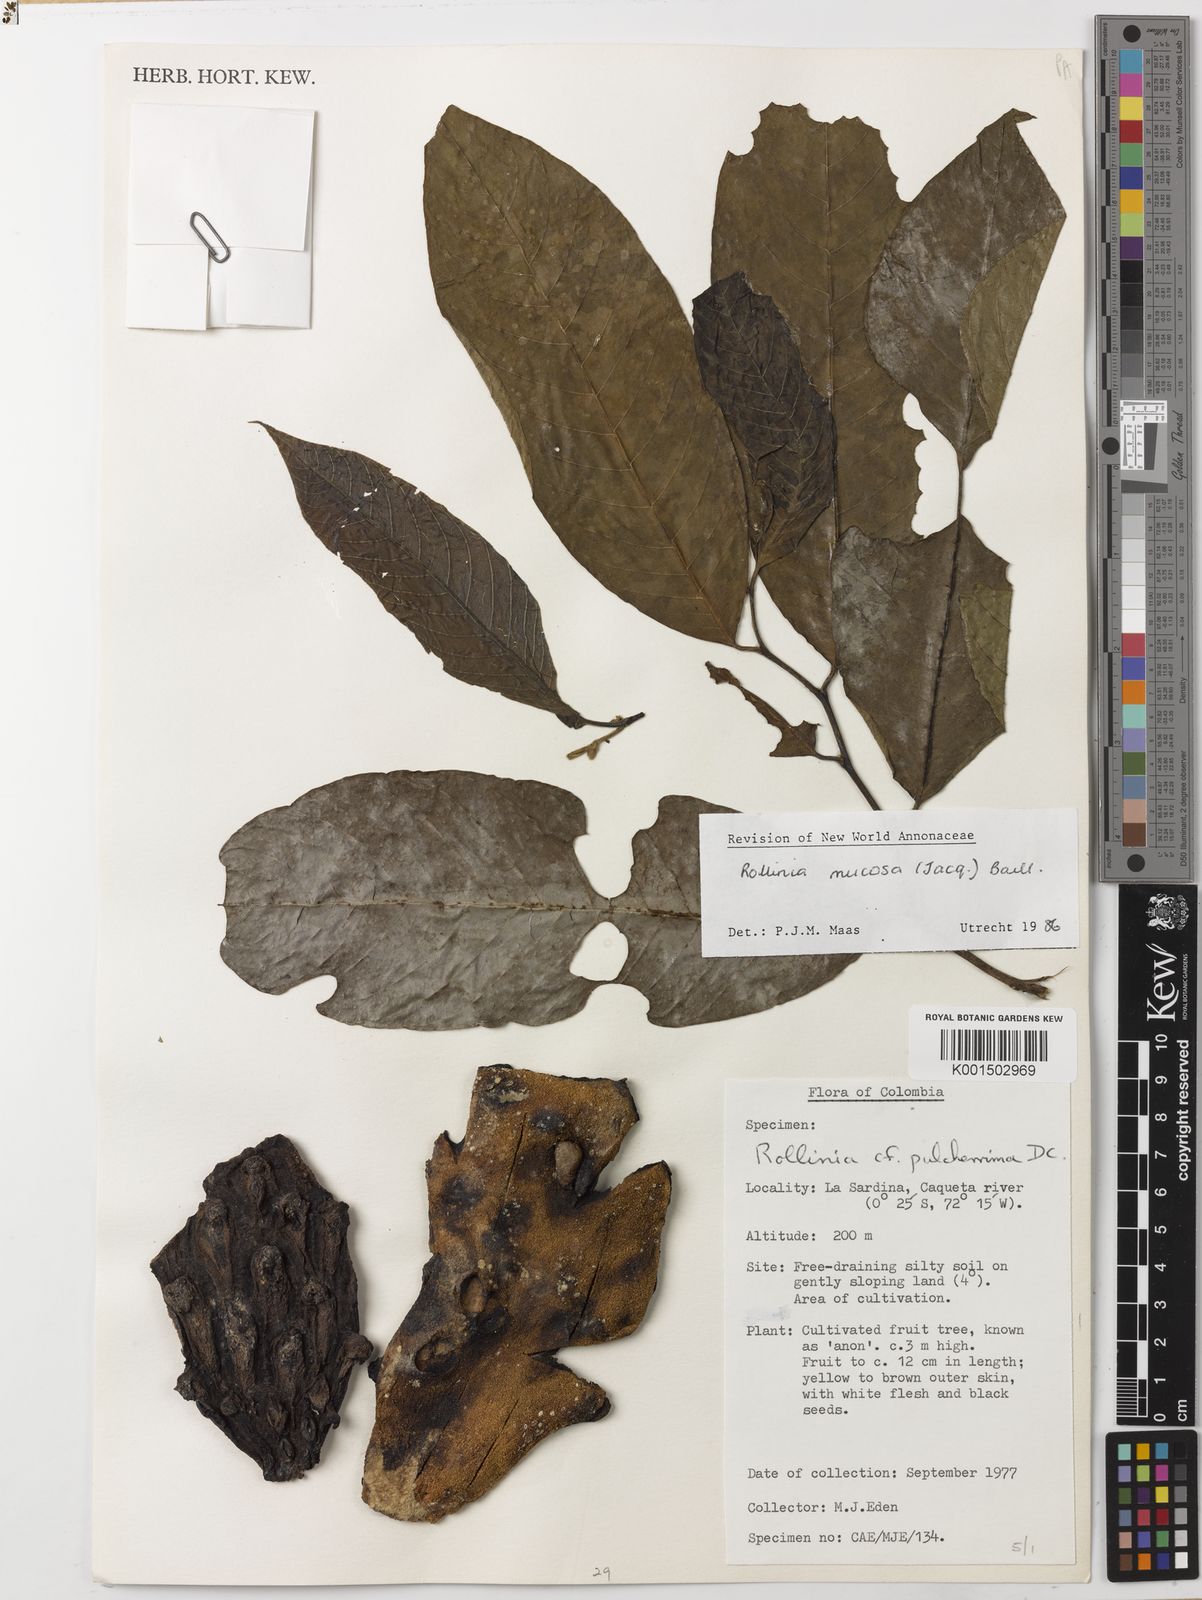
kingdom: Plantae
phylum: Tracheophyta
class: Magnoliopsida
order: Magnoliales
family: Annonaceae
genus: Annona
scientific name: Annona mucosa
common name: Sugar apple
